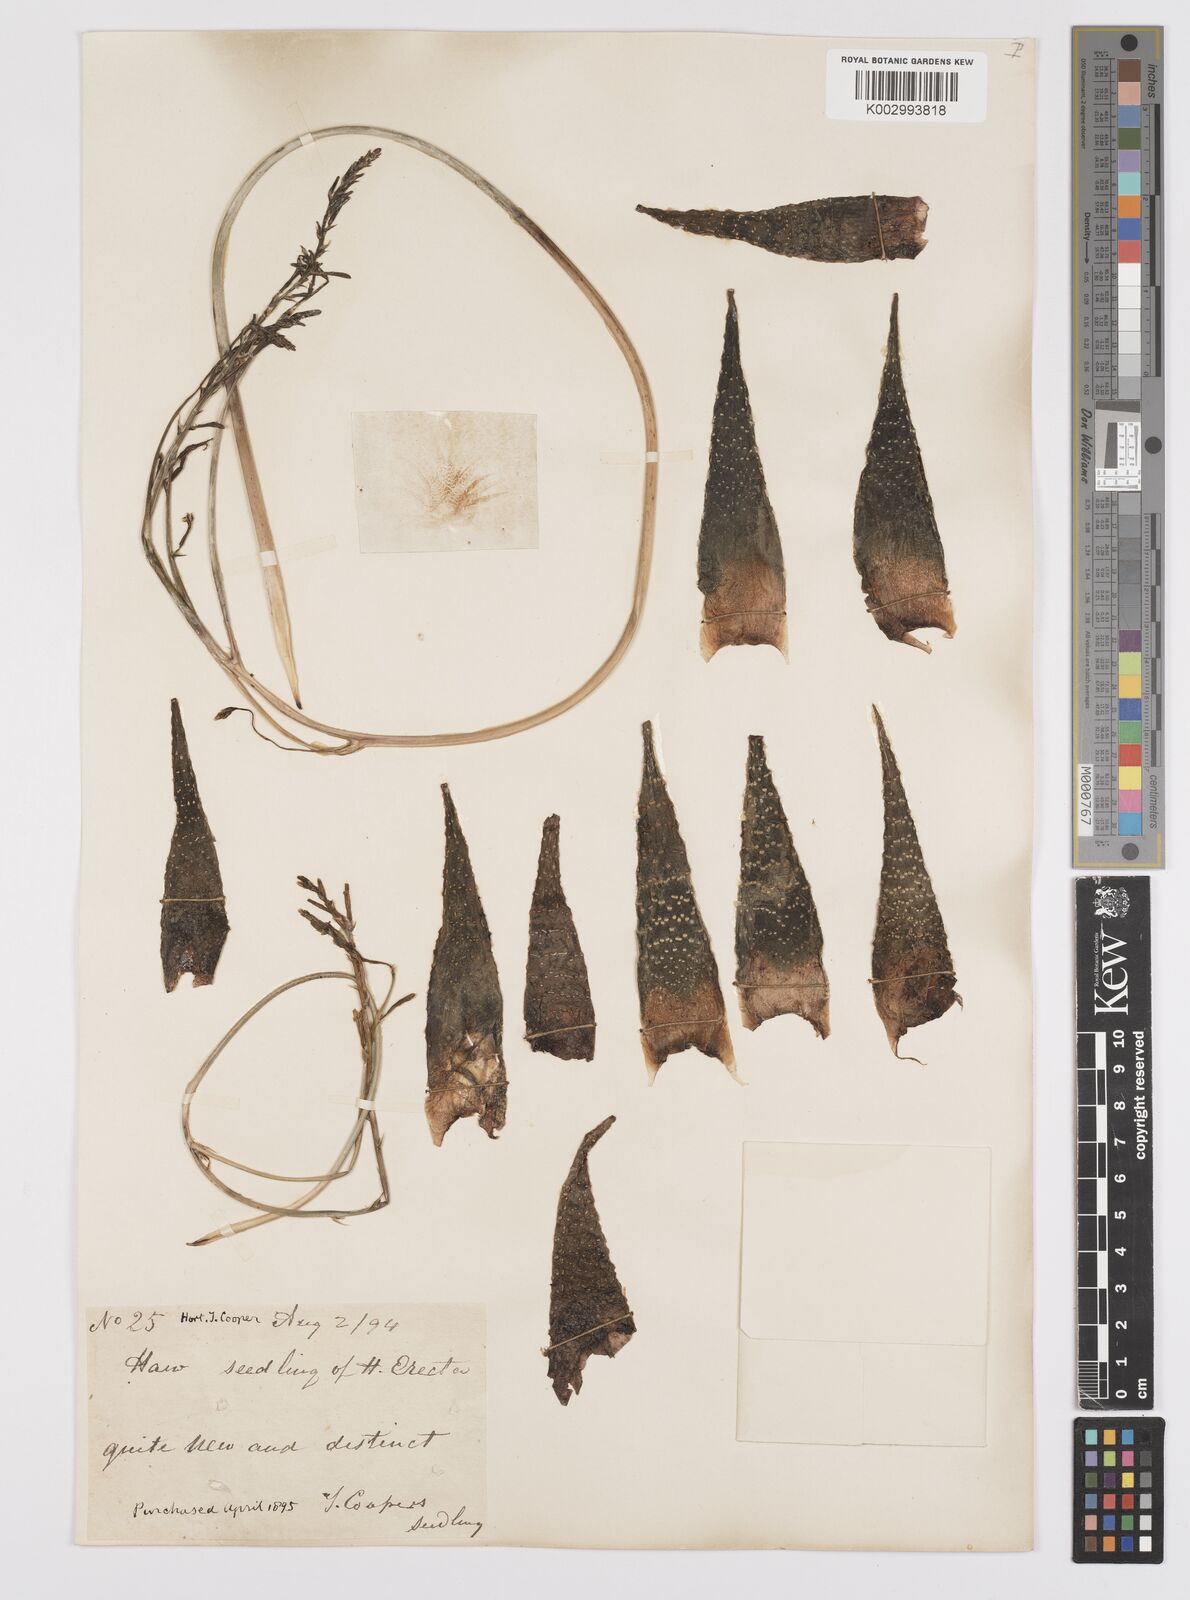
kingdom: Plantae
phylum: Tracheophyta
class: Liliopsida
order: Asparagales
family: Asphodelaceae
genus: Tulista
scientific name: Tulista pumila
